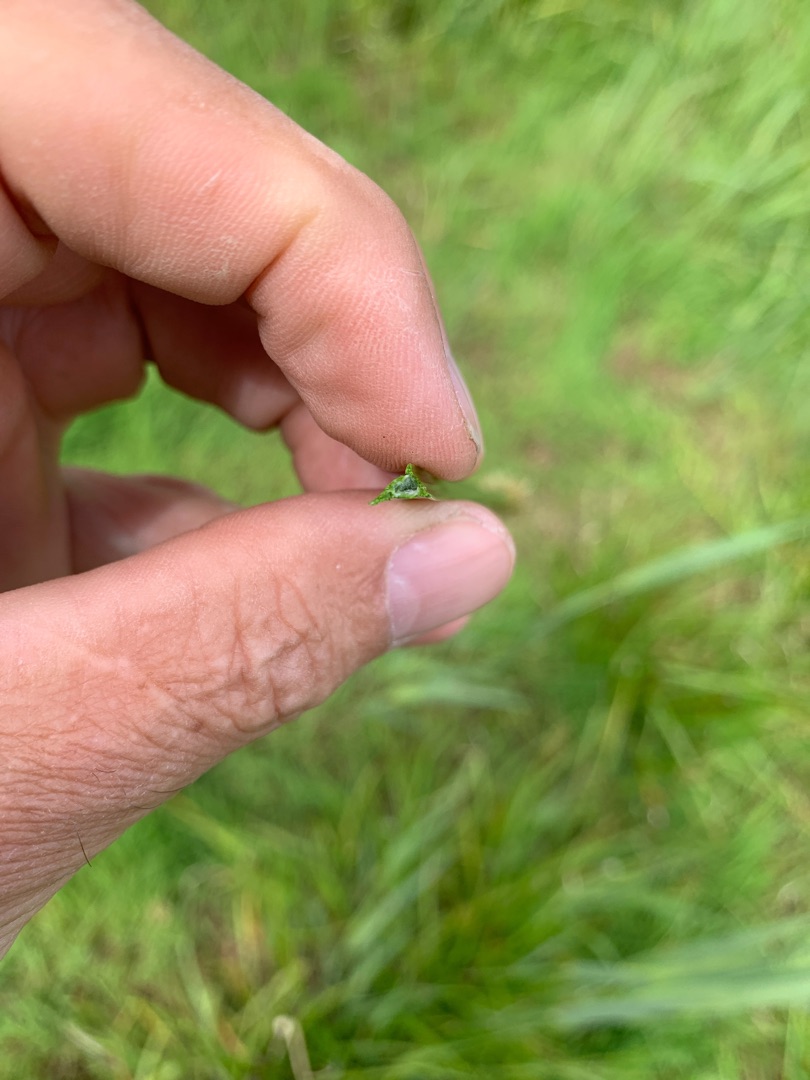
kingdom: Plantae
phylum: Tracheophyta
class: Liliopsida
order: Poales
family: Cyperaceae
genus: Carex
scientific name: Carex otrubae
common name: Sylt-star
